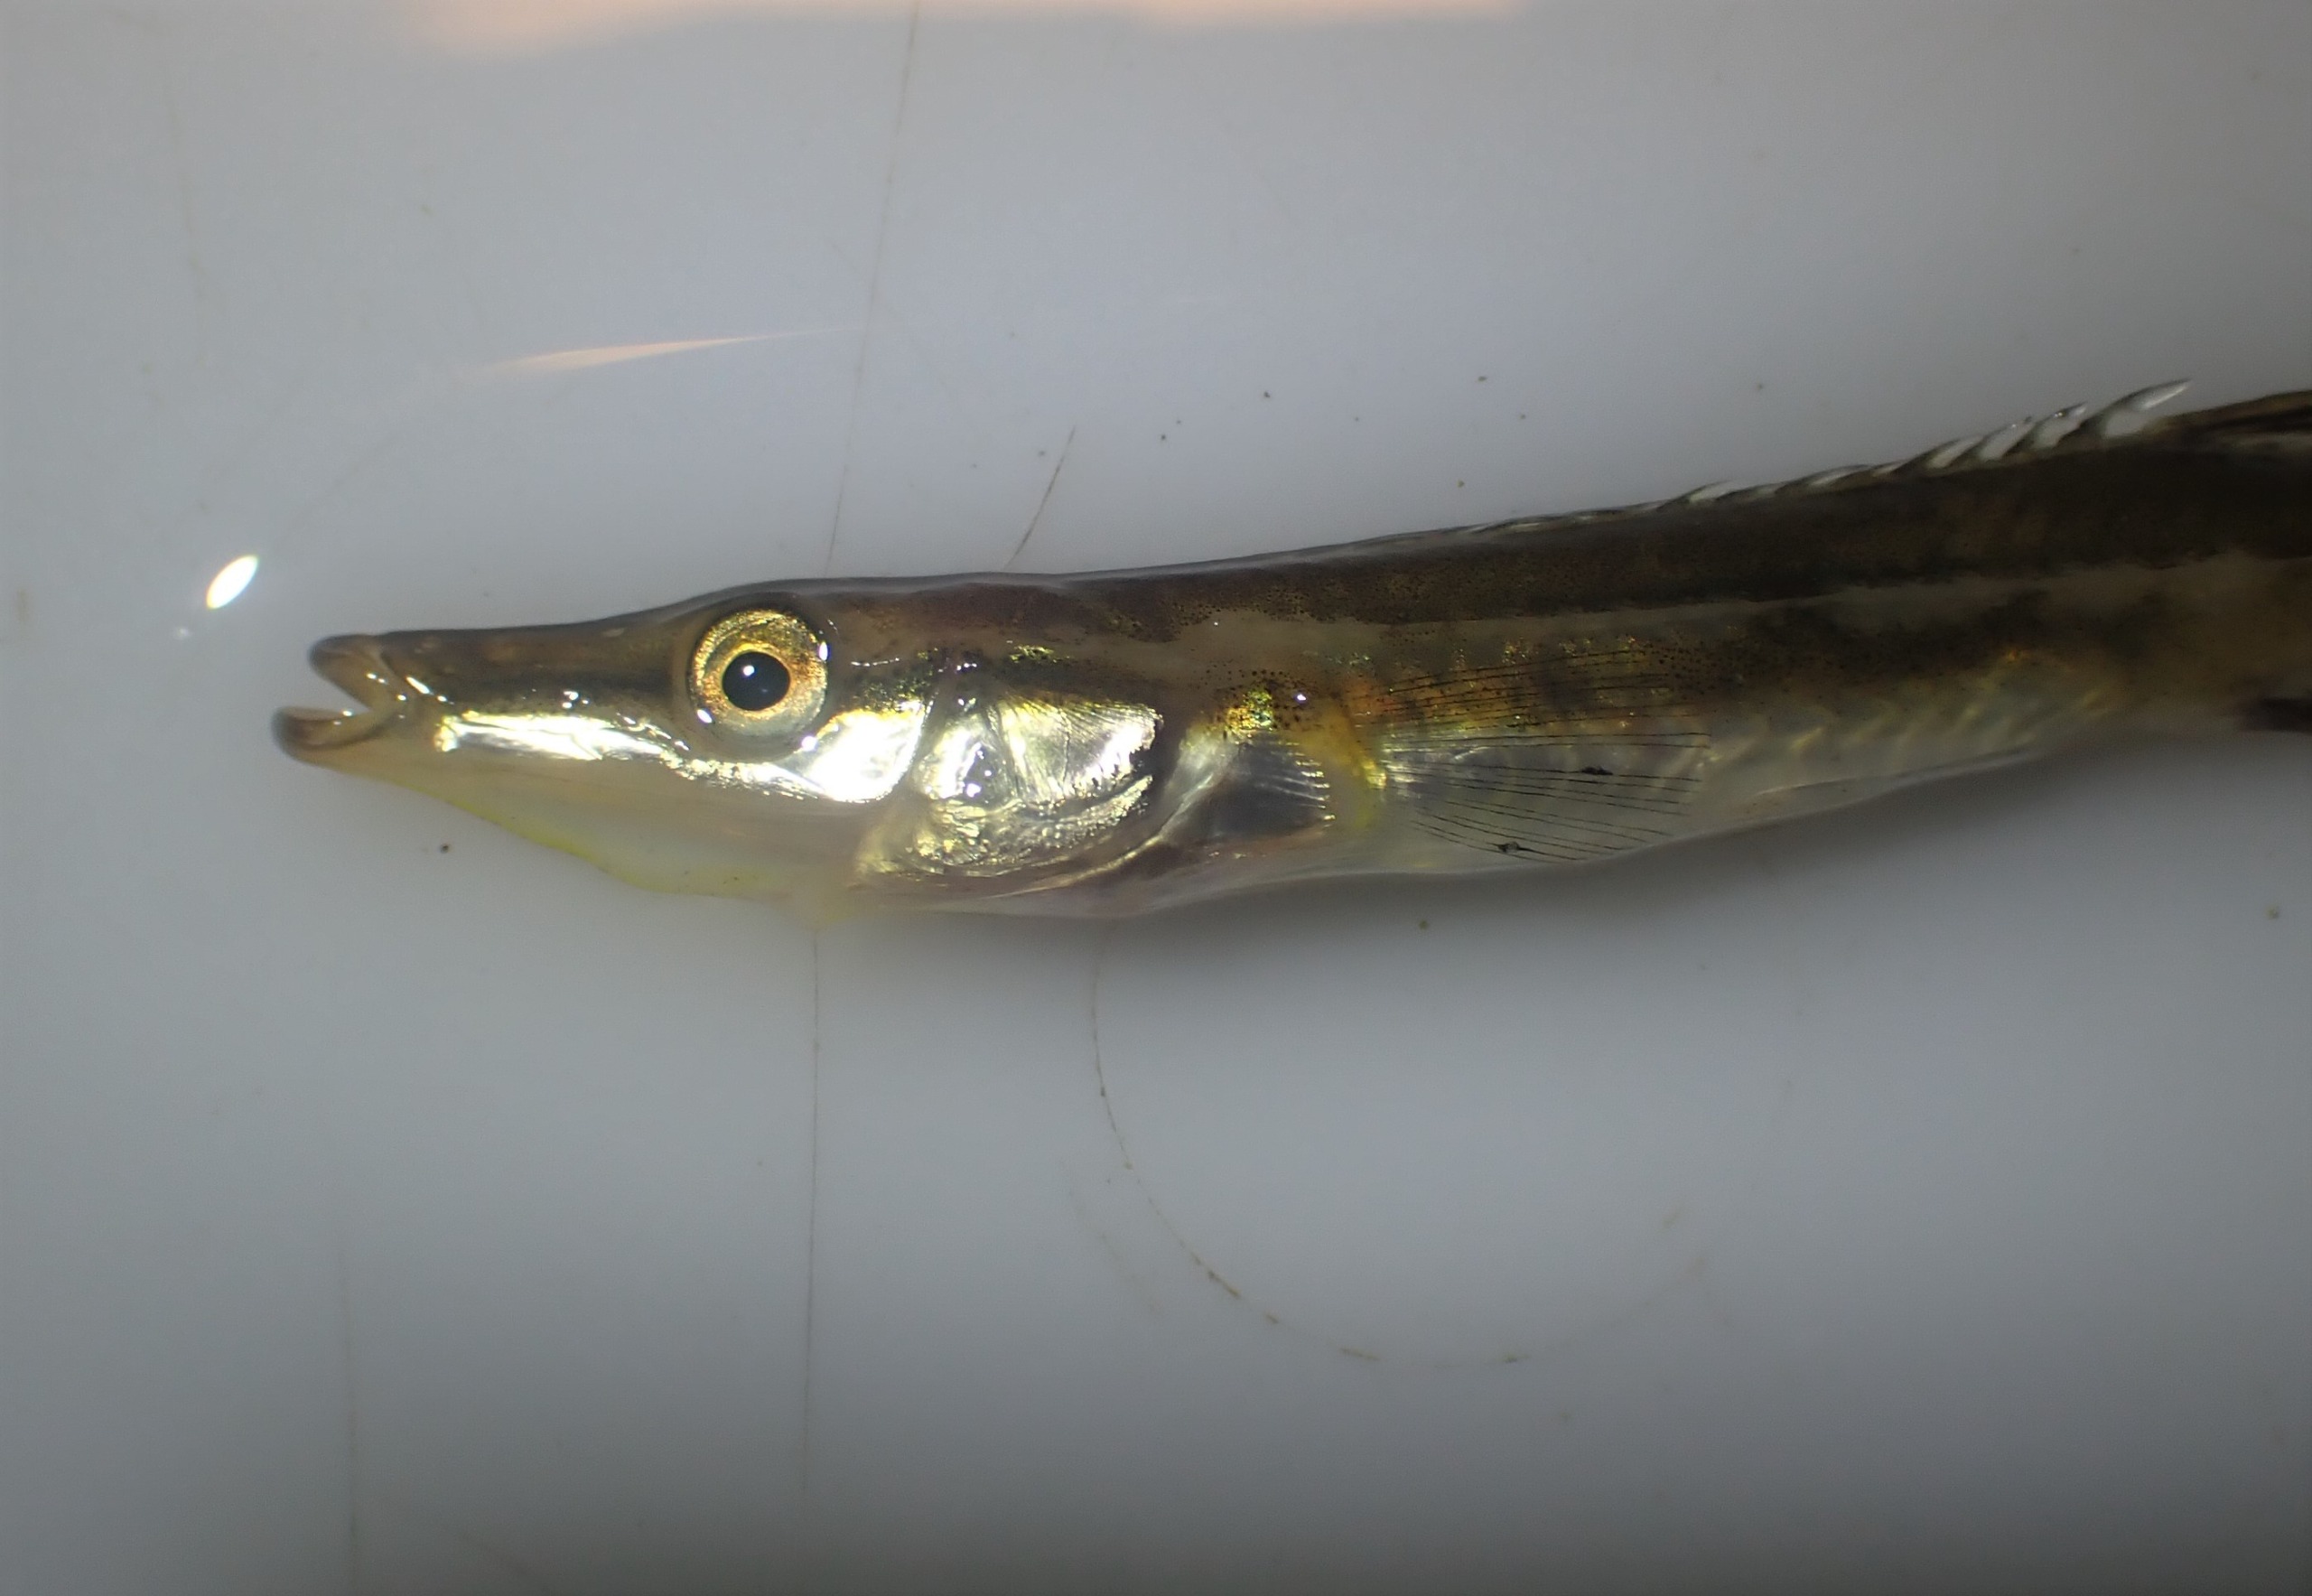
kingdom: Animalia
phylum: Chordata
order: Gasterosteiformes
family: Gasterosteidae
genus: Spinachia
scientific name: Spinachia spinachia
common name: Tangsnarre
